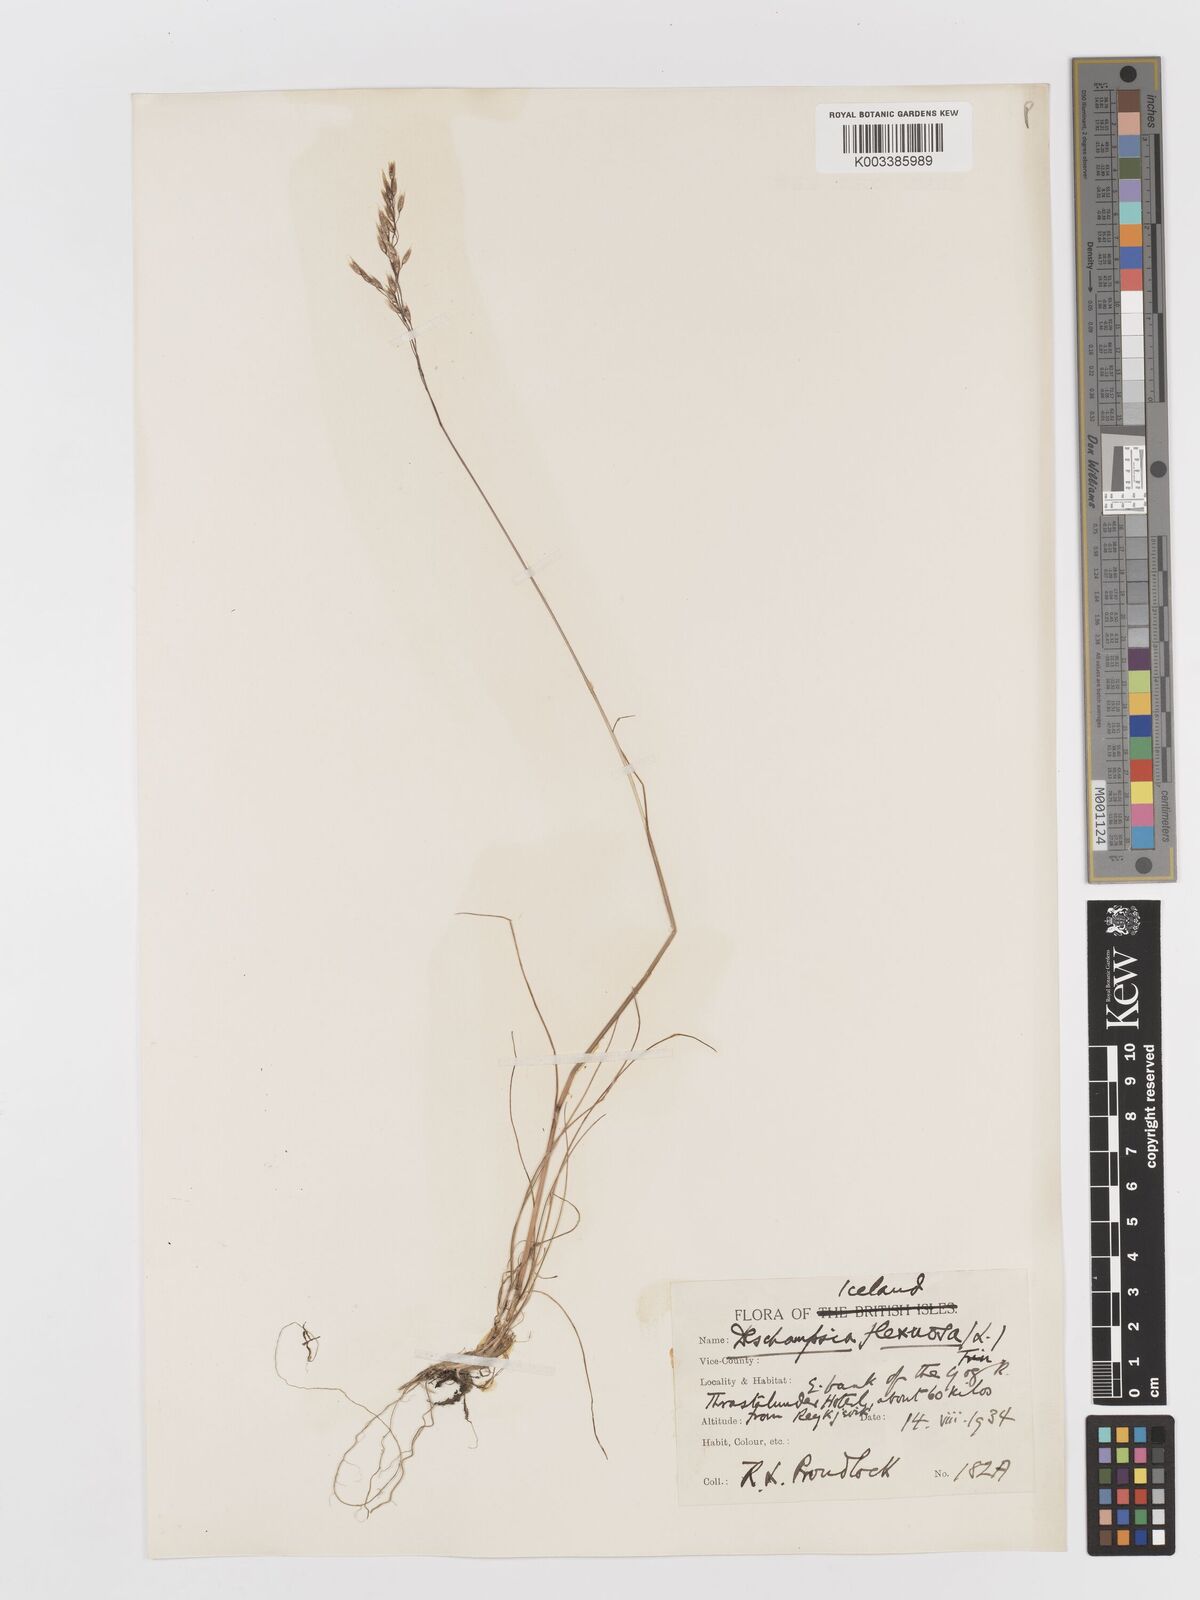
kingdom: Plantae
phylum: Tracheophyta
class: Liliopsida
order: Poales
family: Poaceae
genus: Avenella
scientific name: Avenella flexuosa
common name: Wavy hairgrass
